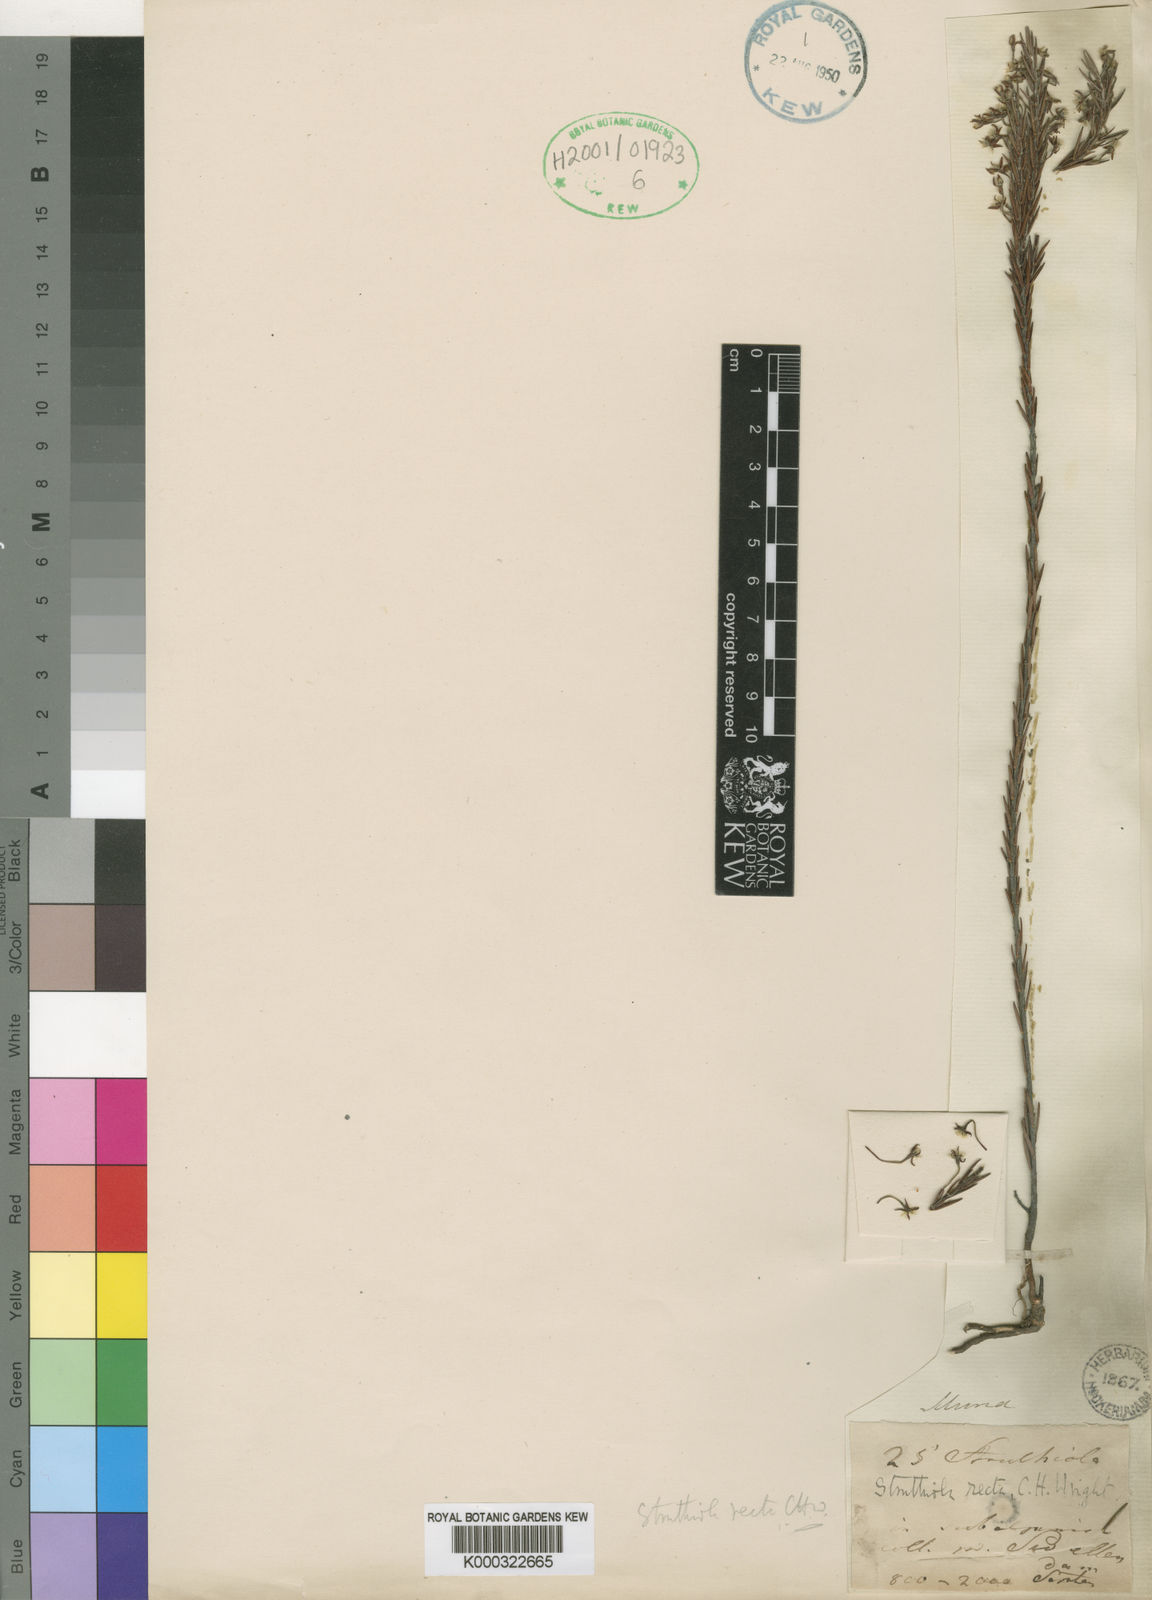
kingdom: Plantae
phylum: Tracheophyta
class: Magnoliopsida
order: Malvales
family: Thymelaeaceae
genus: Struthiola
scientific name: Struthiola recta
